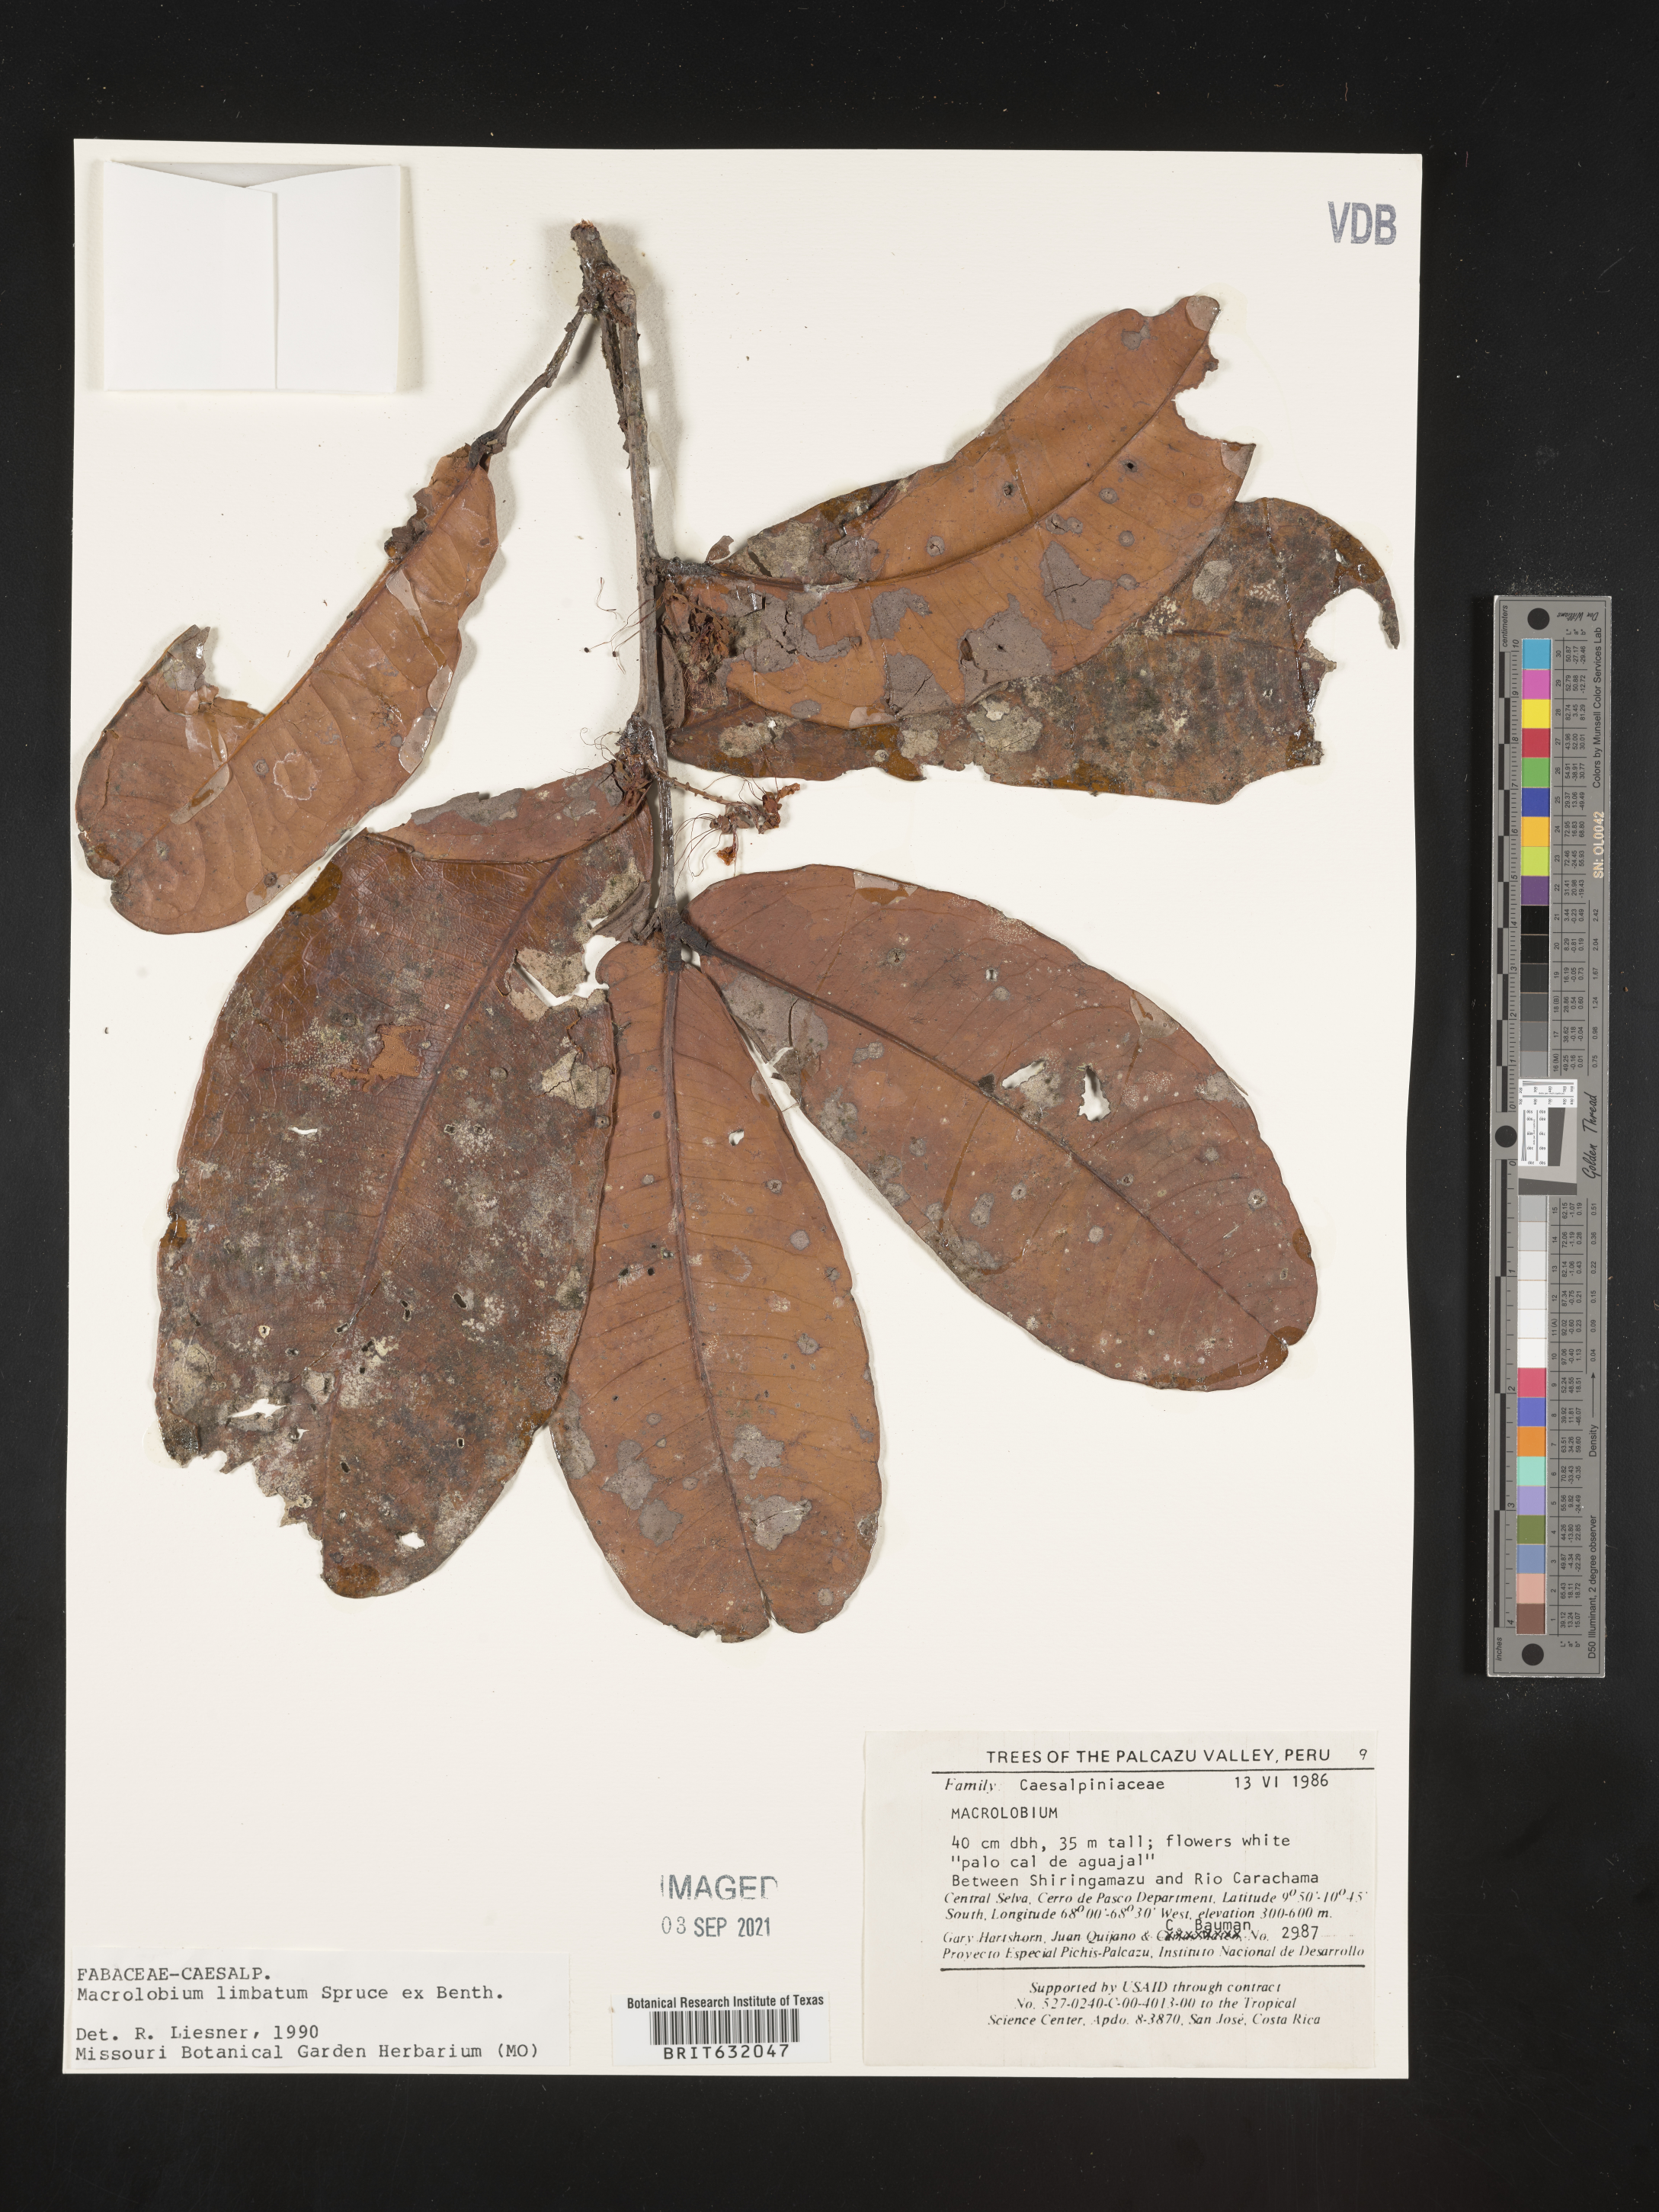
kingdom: Plantae
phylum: Tracheophyta
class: Magnoliopsida
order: Fabales
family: Fabaceae
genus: Macrolobium
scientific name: Macrolobium
